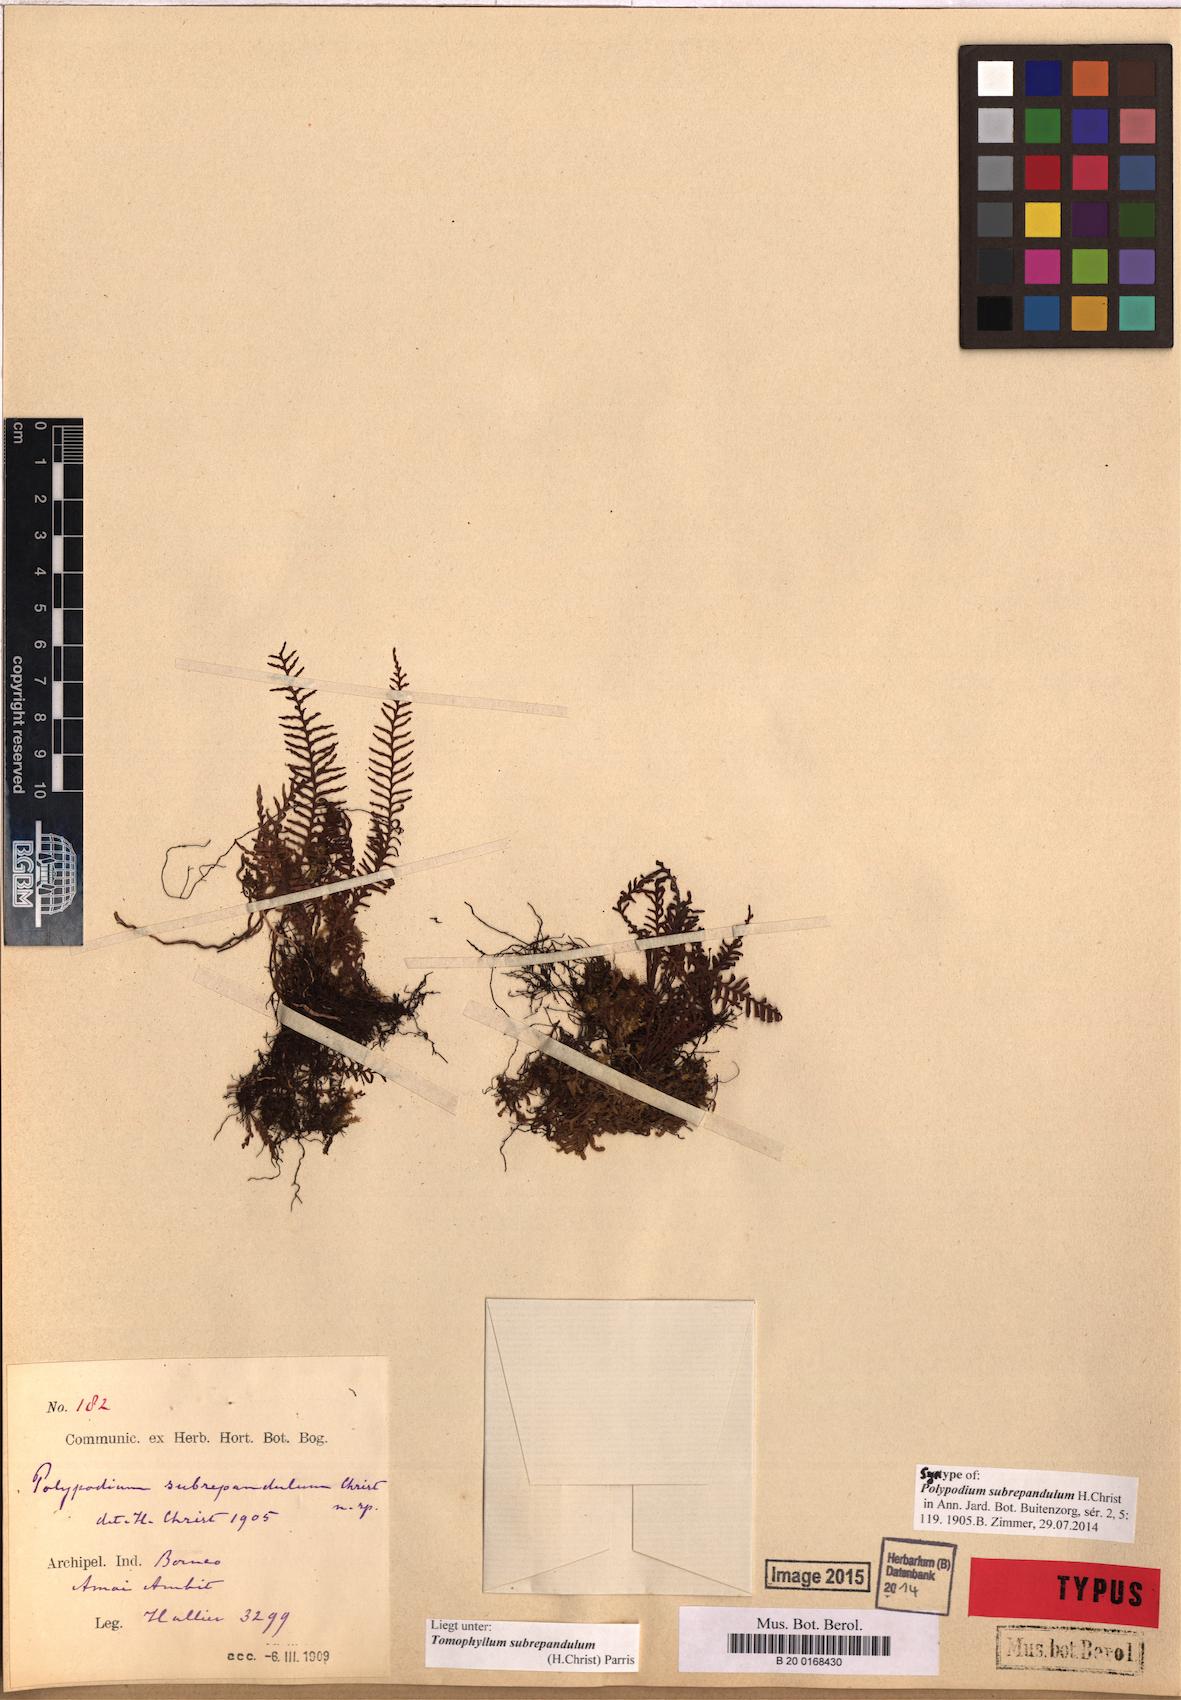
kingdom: Plantae
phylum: Tracheophyta
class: Polypodiopsida
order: Polypodiales
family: Polypodiaceae
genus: Tomophyllum
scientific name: Tomophyllum subrepandulum
